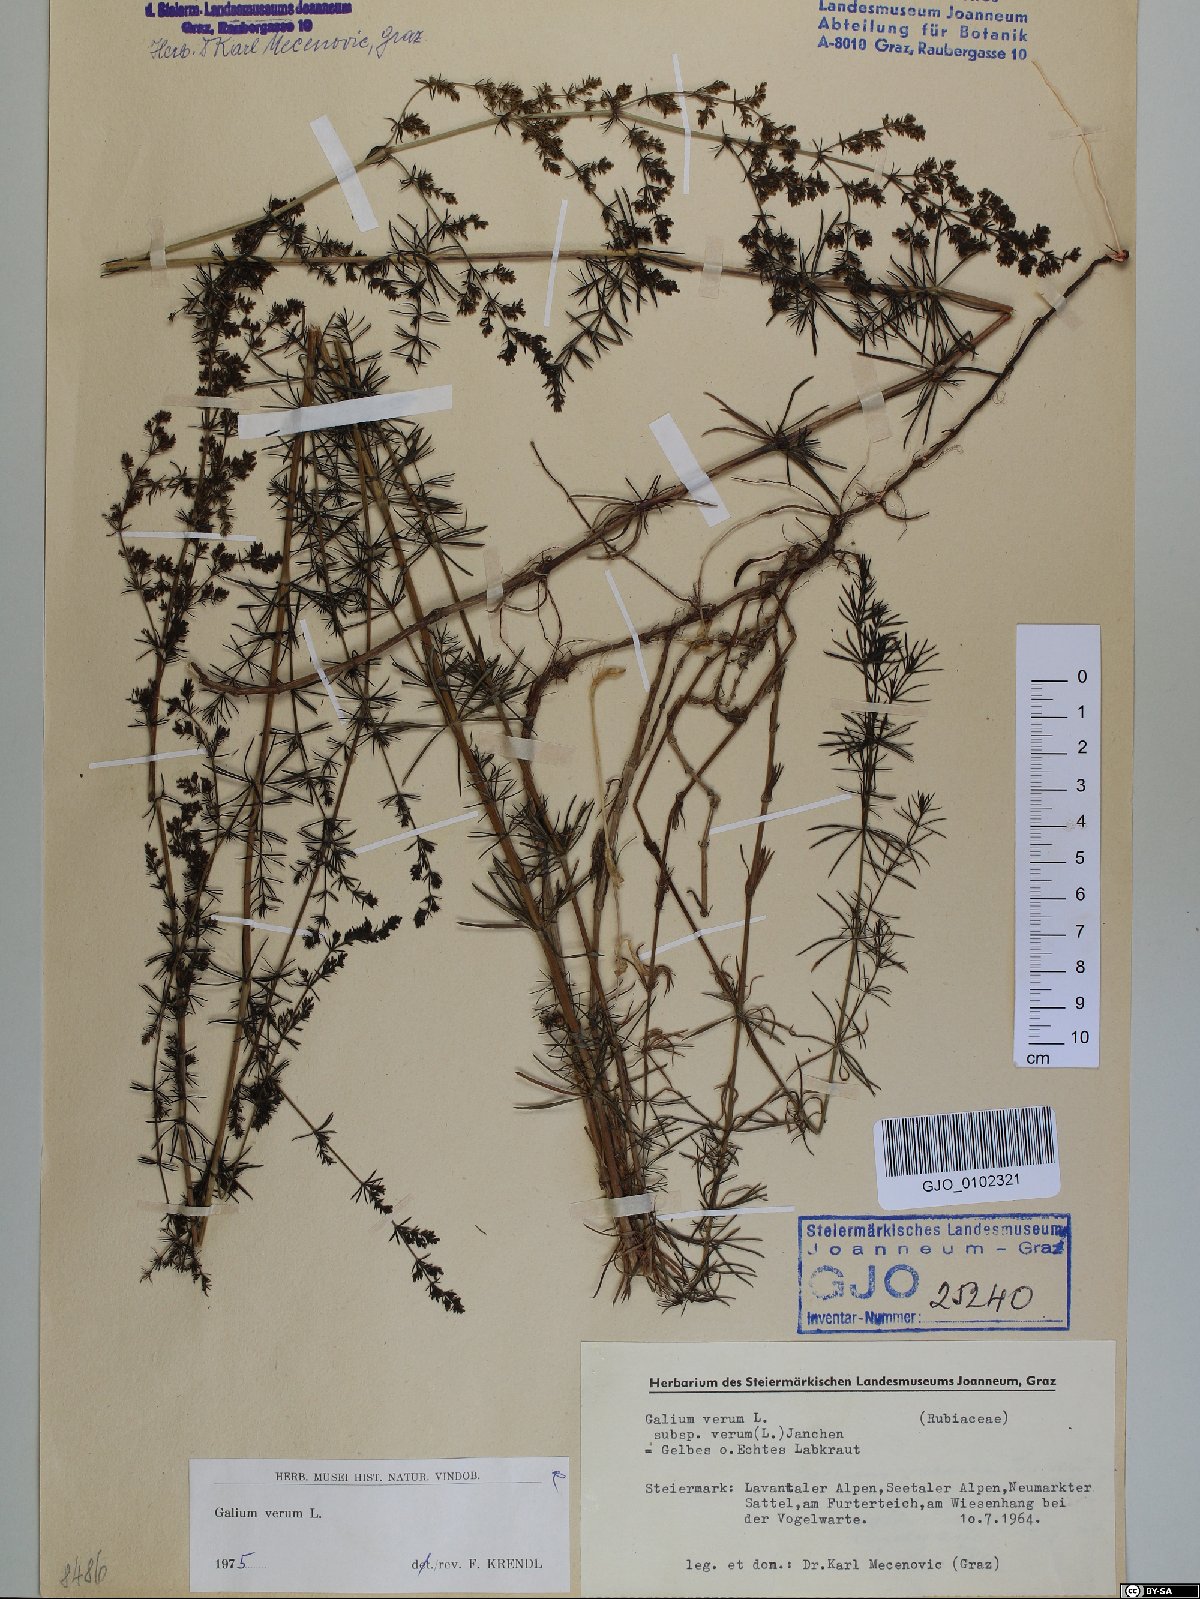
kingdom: Plantae
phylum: Tracheophyta
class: Magnoliopsida
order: Gentianales
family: Rubiaceae
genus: Galium
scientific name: Galium verum
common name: Lady's bedstraw
